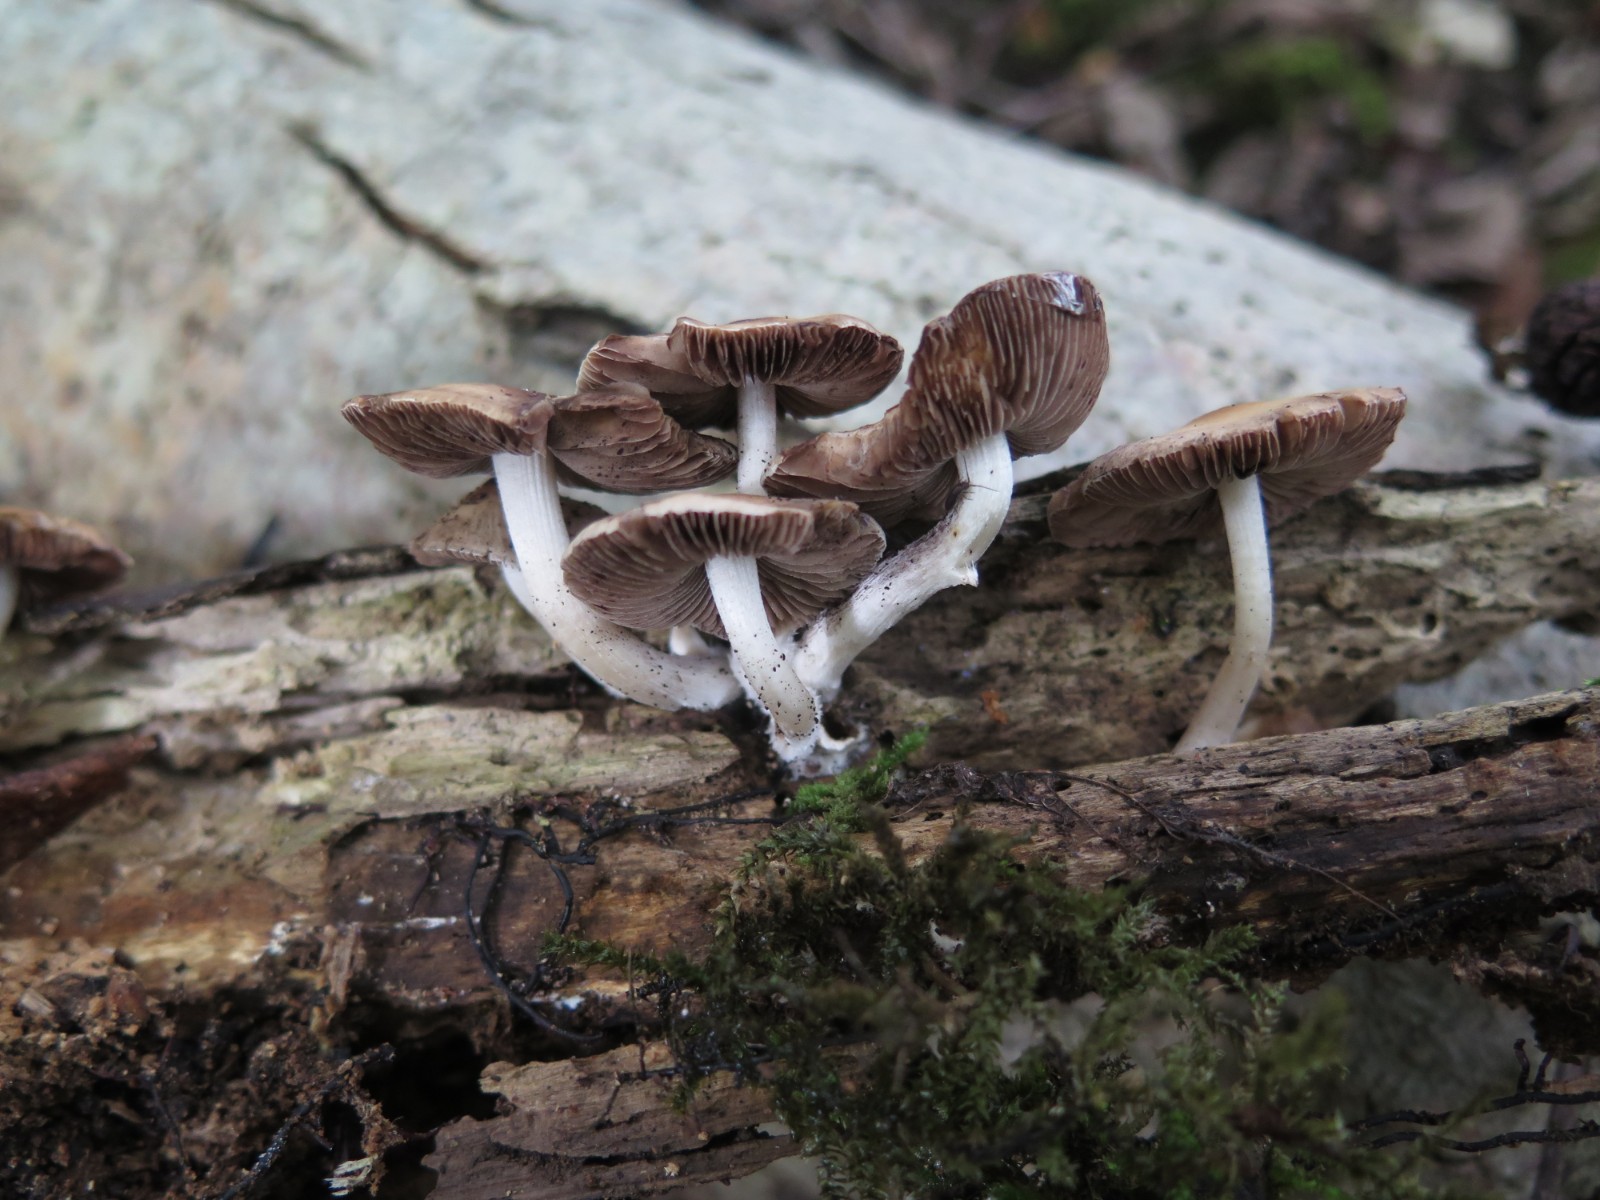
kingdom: Fungi
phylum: Basidiomycota
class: Agaricomycetes
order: Agaricales
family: Psathyrellaceae
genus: Psathyrella
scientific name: Psathyrella
